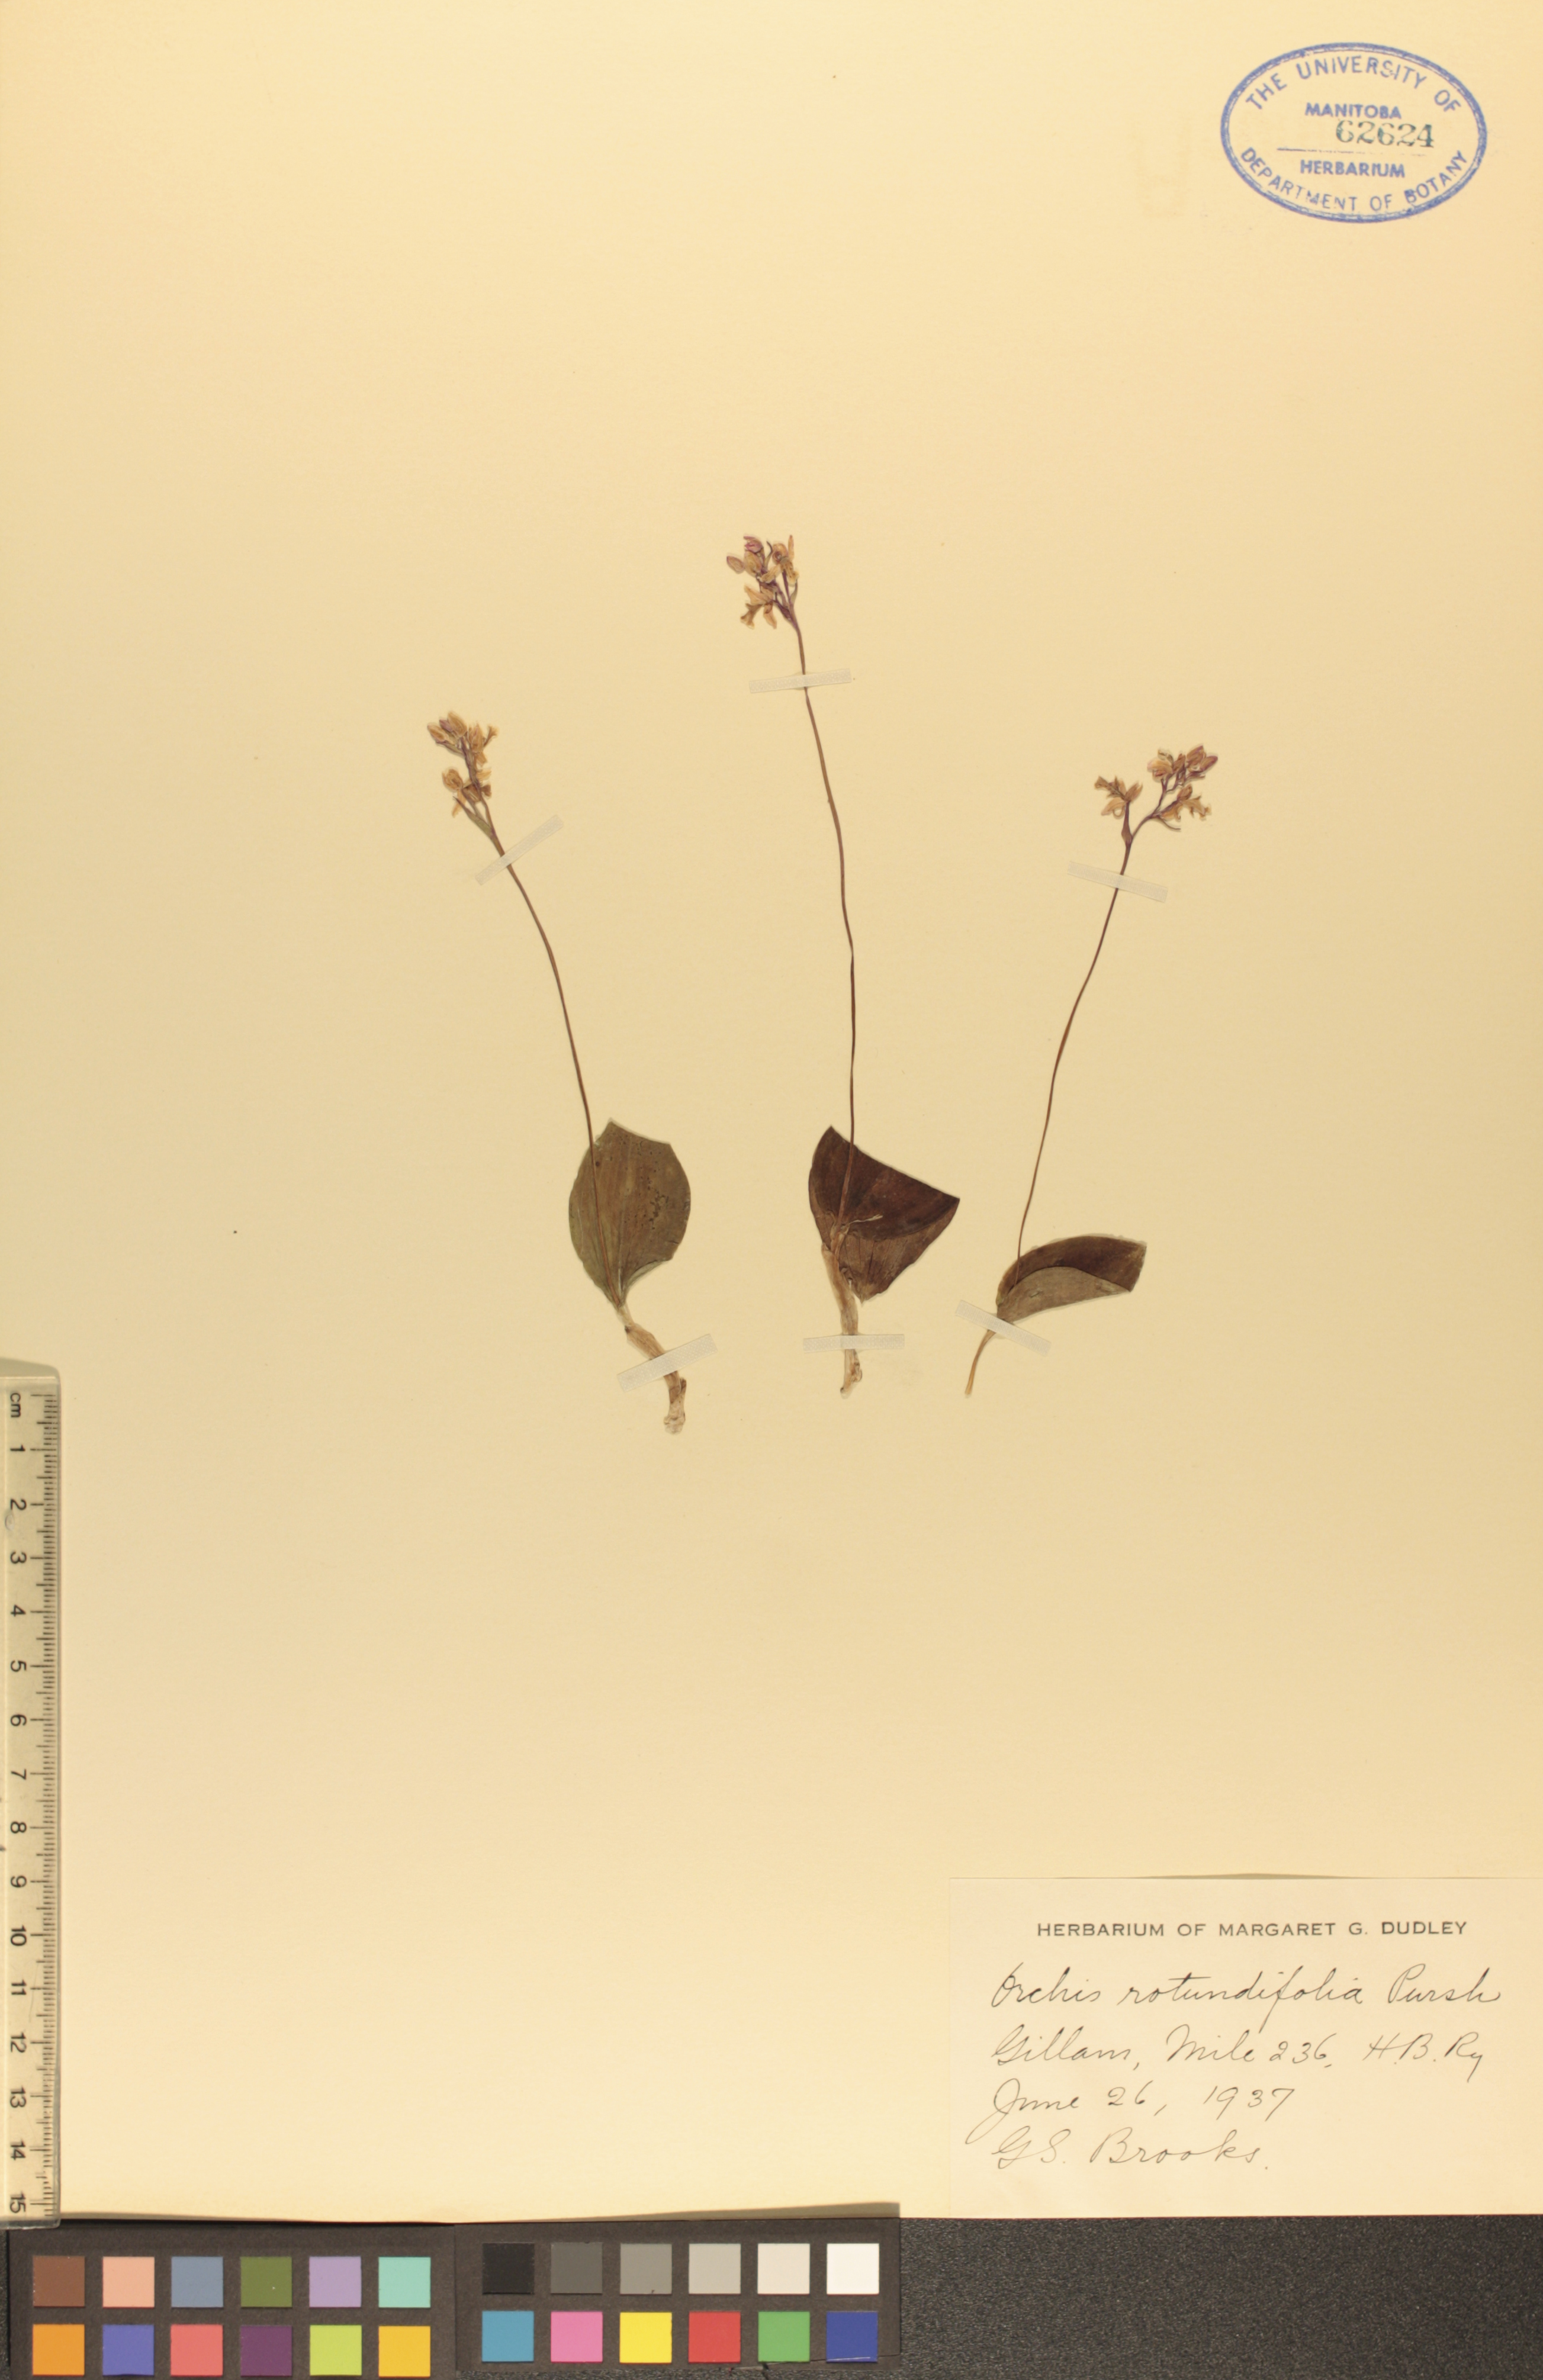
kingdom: Plantae
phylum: Tracheophyta
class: Liliopsida
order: Asparagales
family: Orchidaceae
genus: Galearis
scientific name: Galearis rotundifolia
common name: One-leaved orchis
